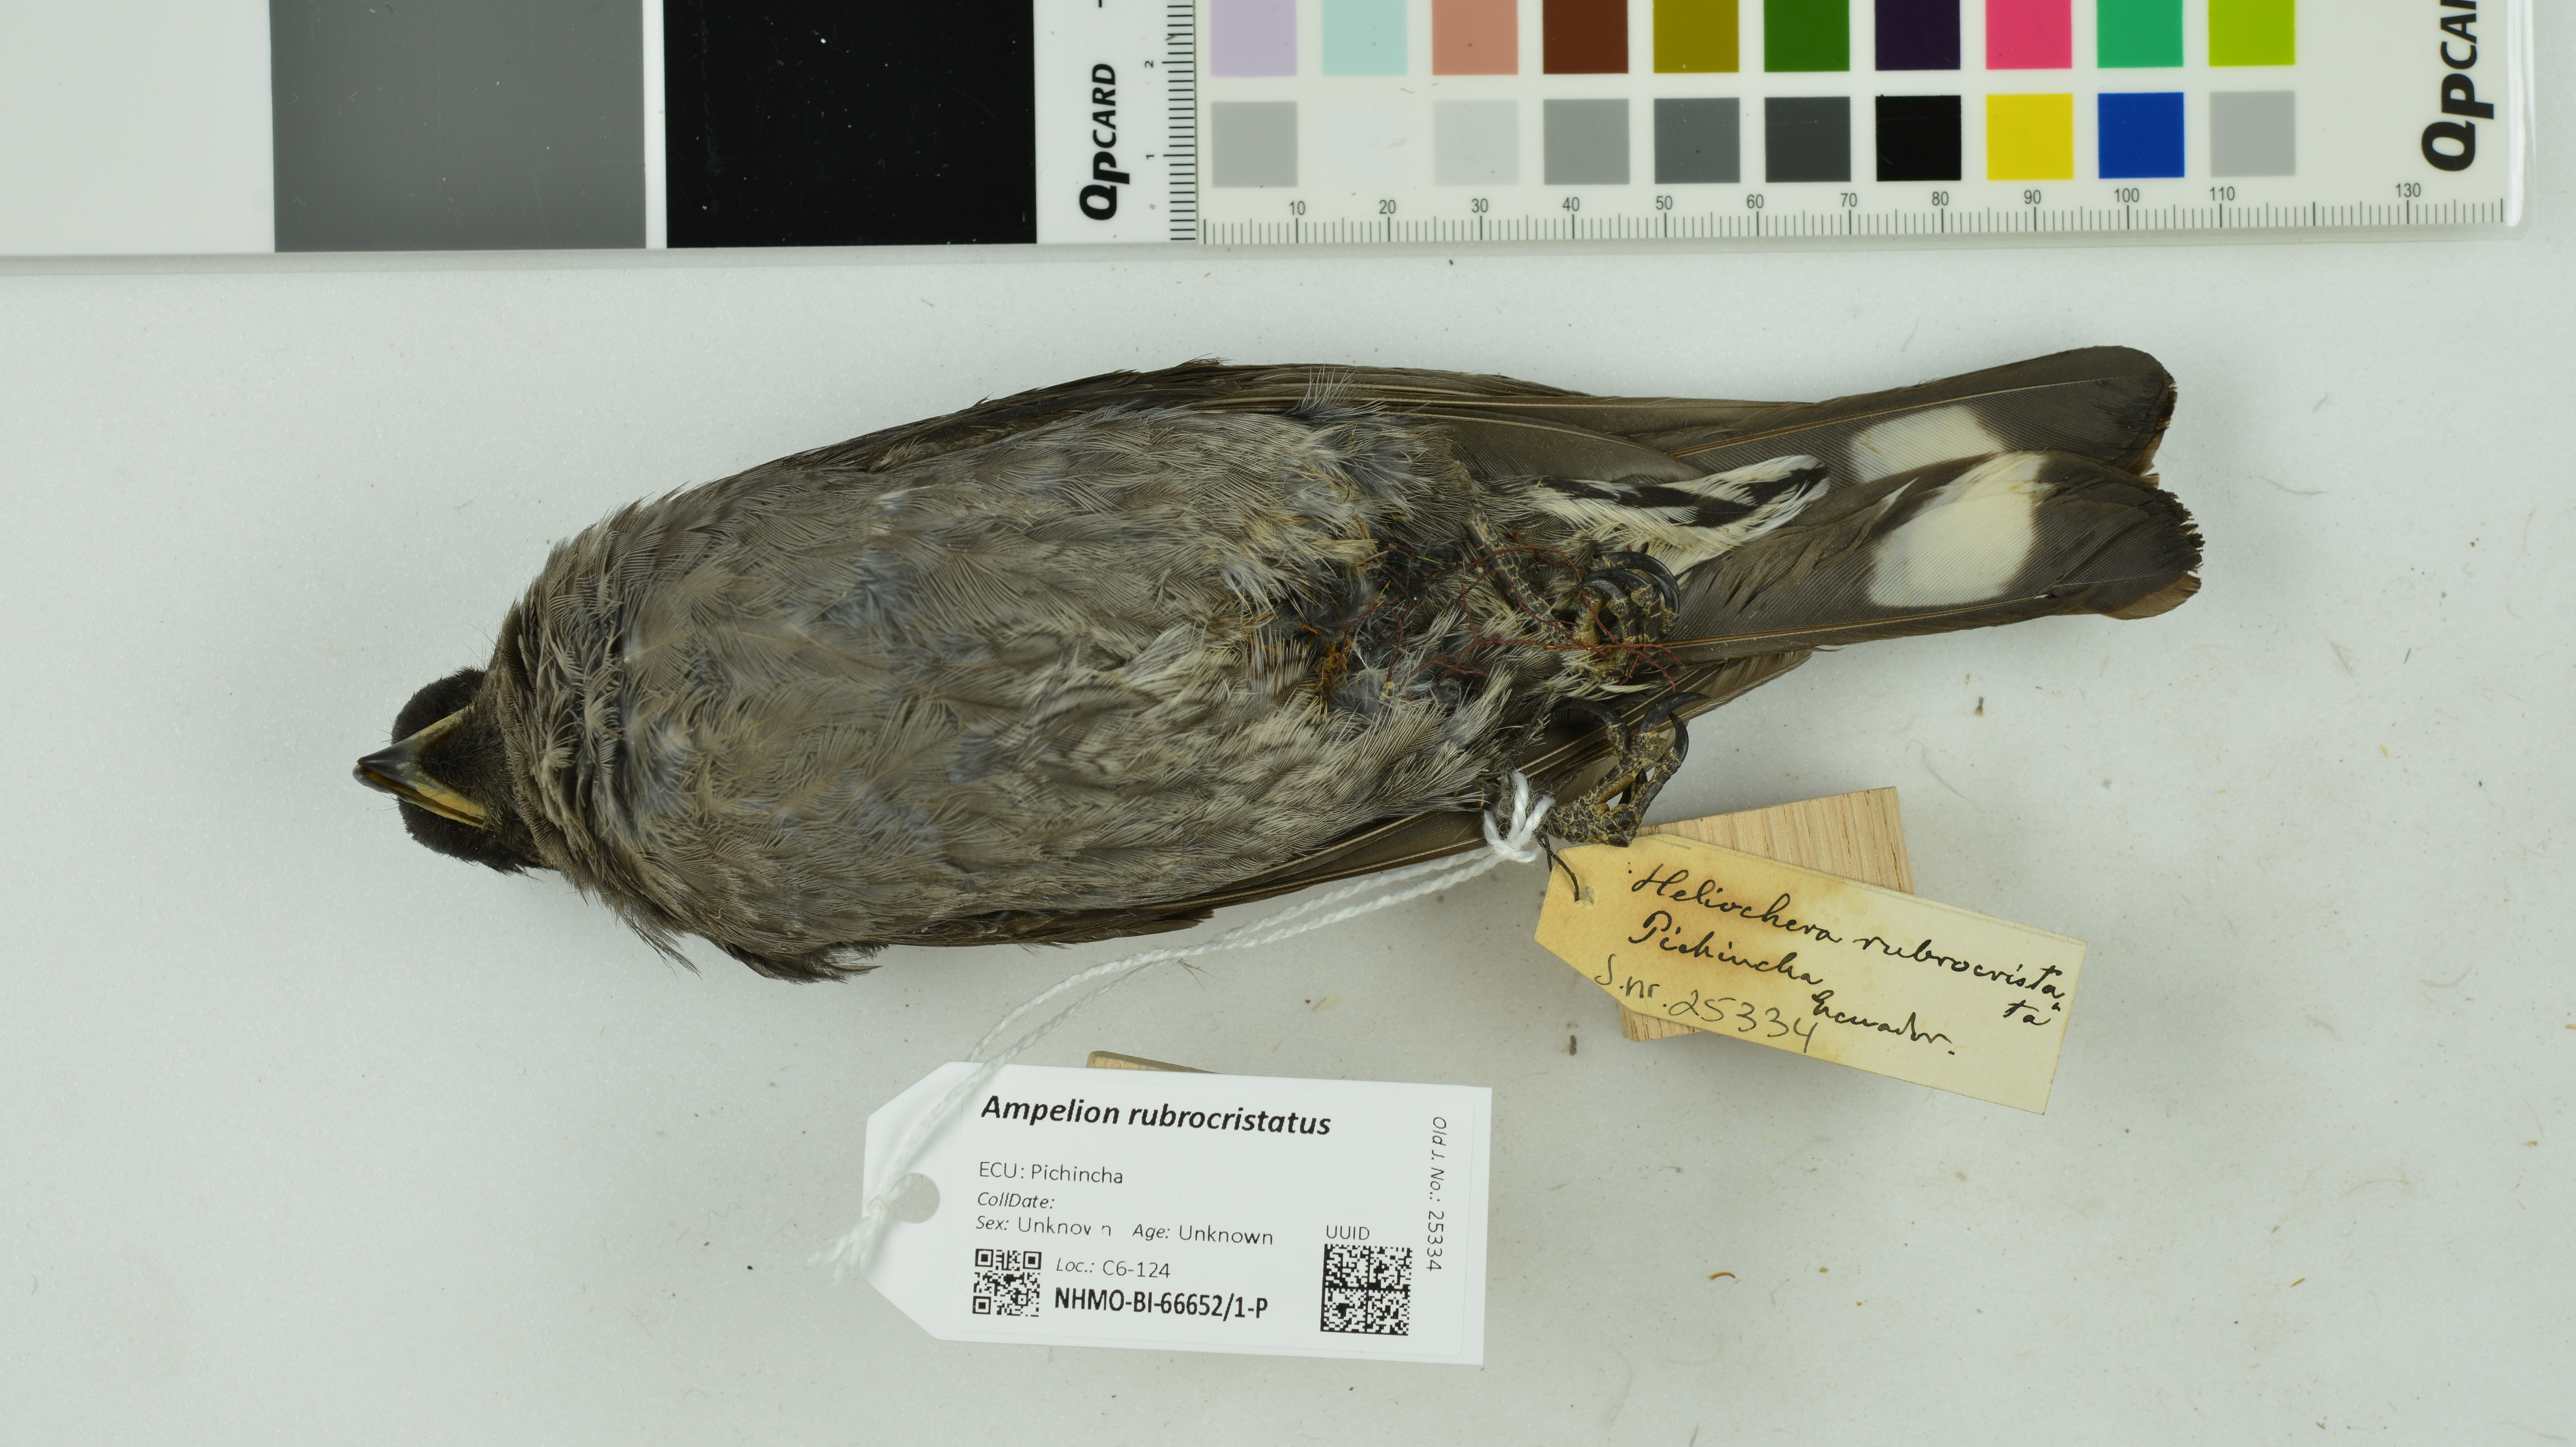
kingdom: Animalia
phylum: Chordata
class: Aves
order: Passeriformes
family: Cotingidae
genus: Ampelion
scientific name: Ampelion rubrocristatus
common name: Red-crested cotinga
